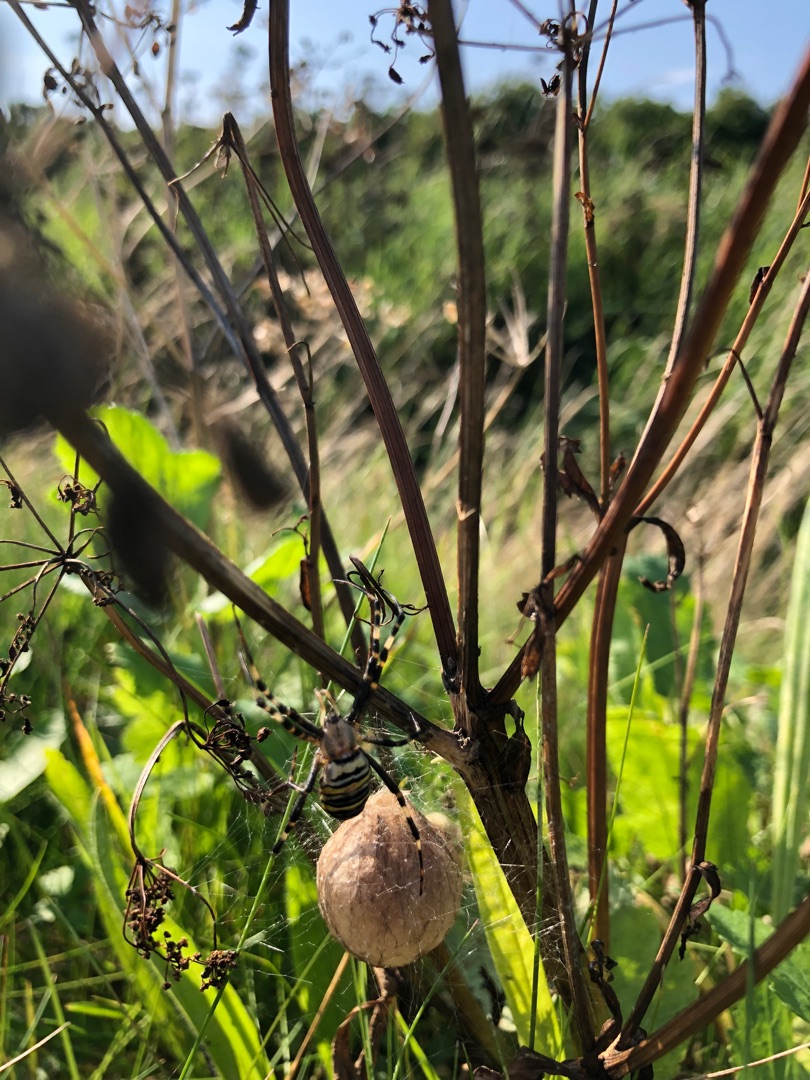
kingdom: Animalia
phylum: Arthropoda
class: Arachnida
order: Araneae
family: Araneidae
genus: Argiope
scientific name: Argiope bruennichi
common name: Hvepseedderkop
